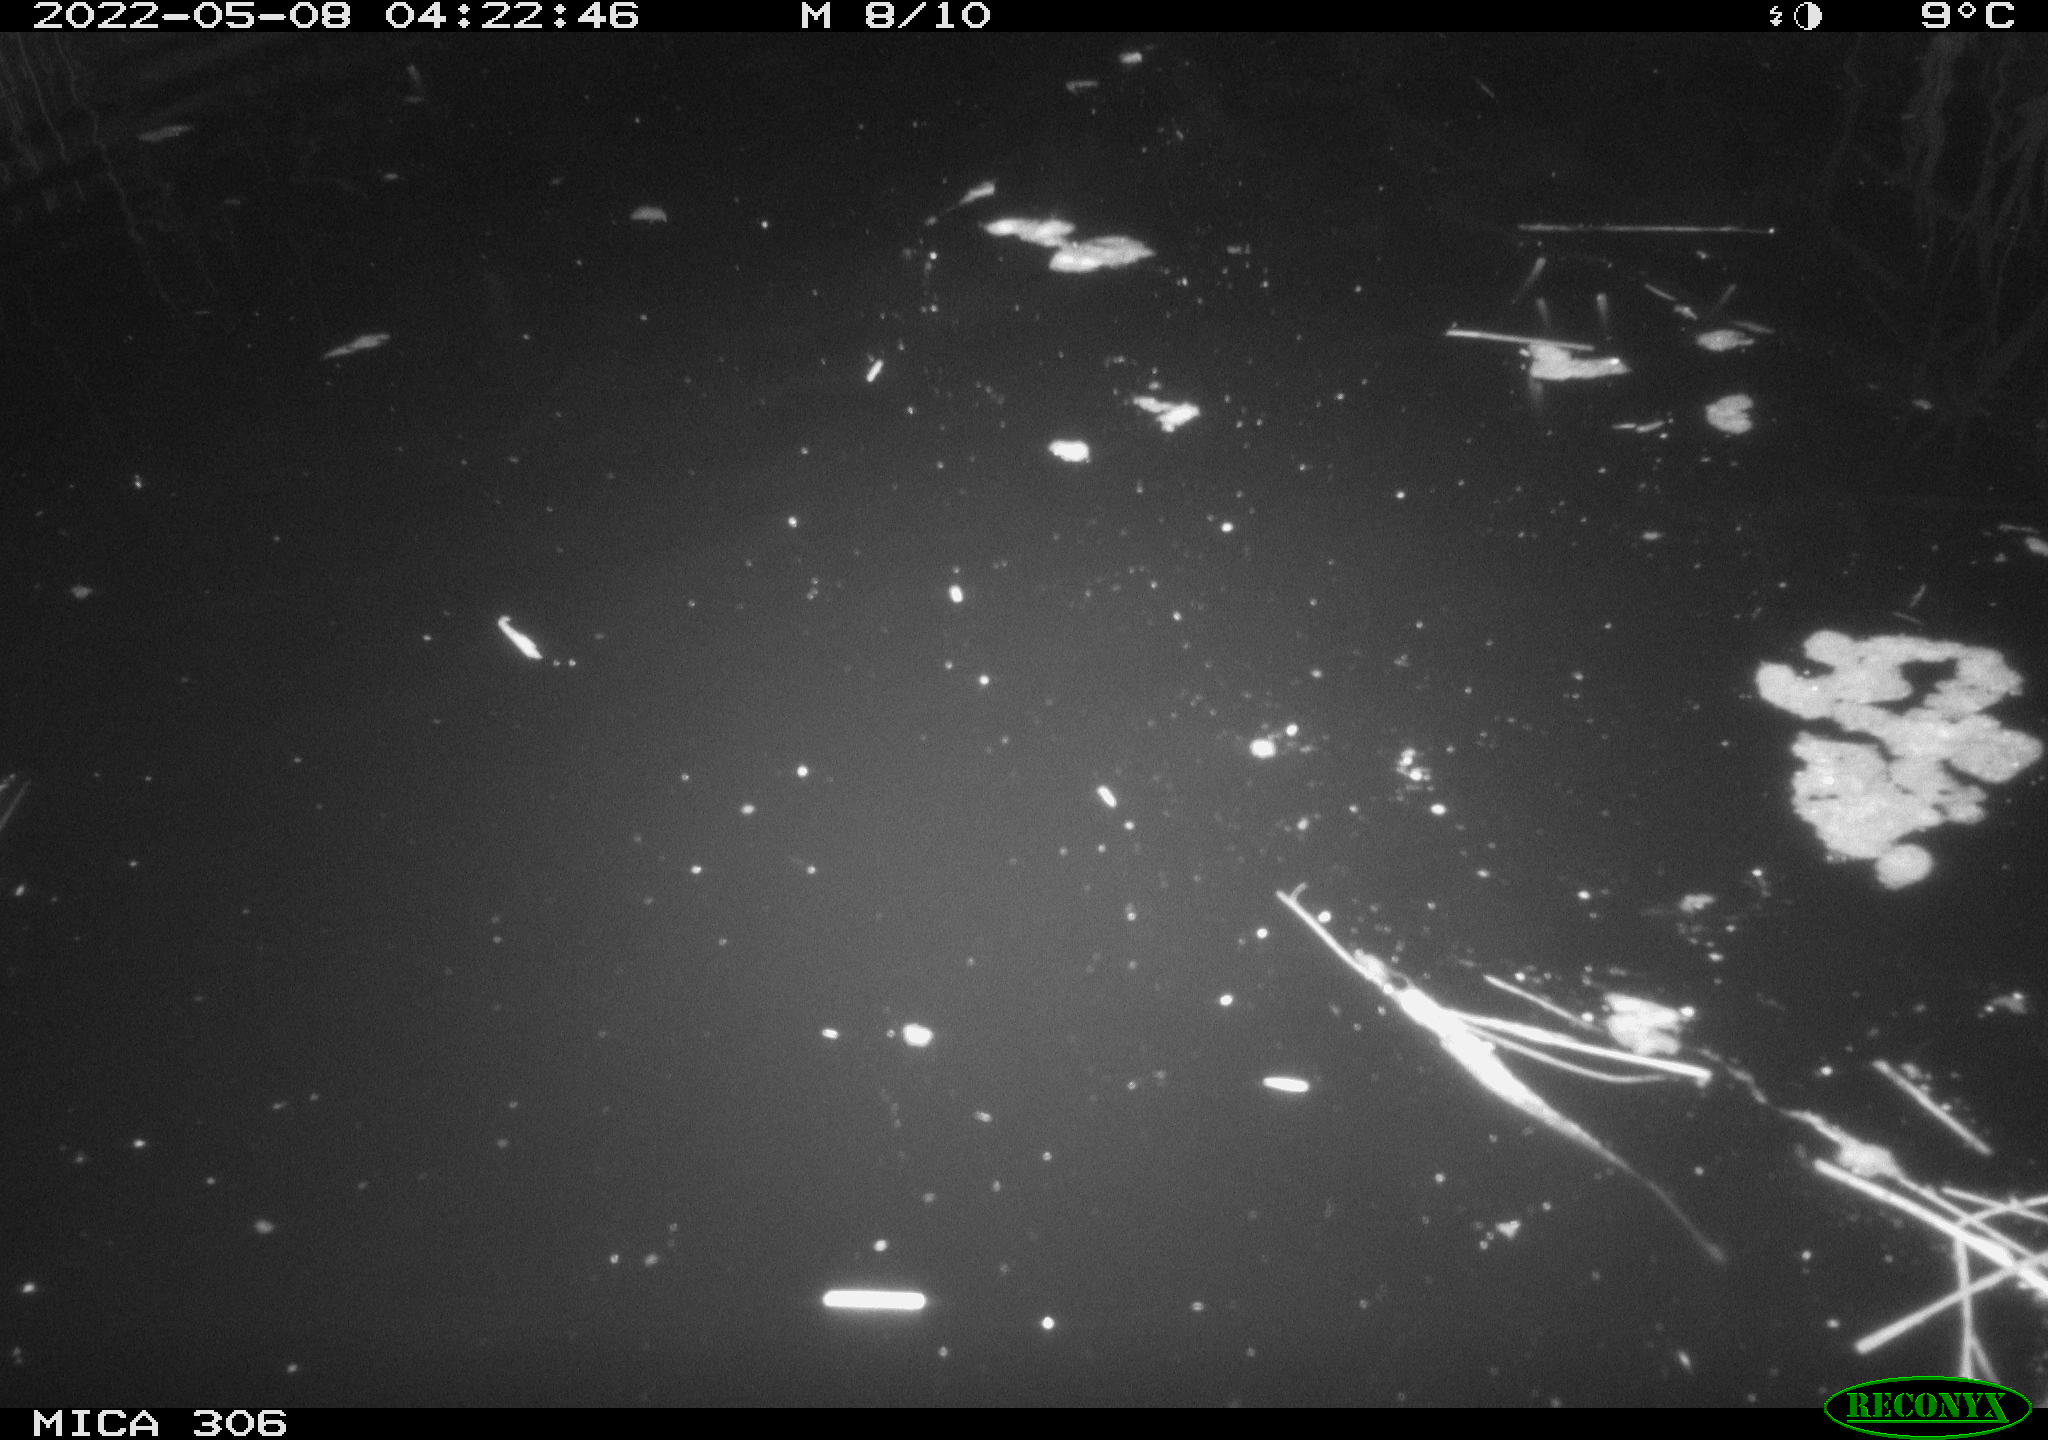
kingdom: Animalia
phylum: Chordata
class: Aves
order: Gruiformes
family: Rallidae
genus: Gallinula
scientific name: Gallinula chloropus
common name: Common moorhen
